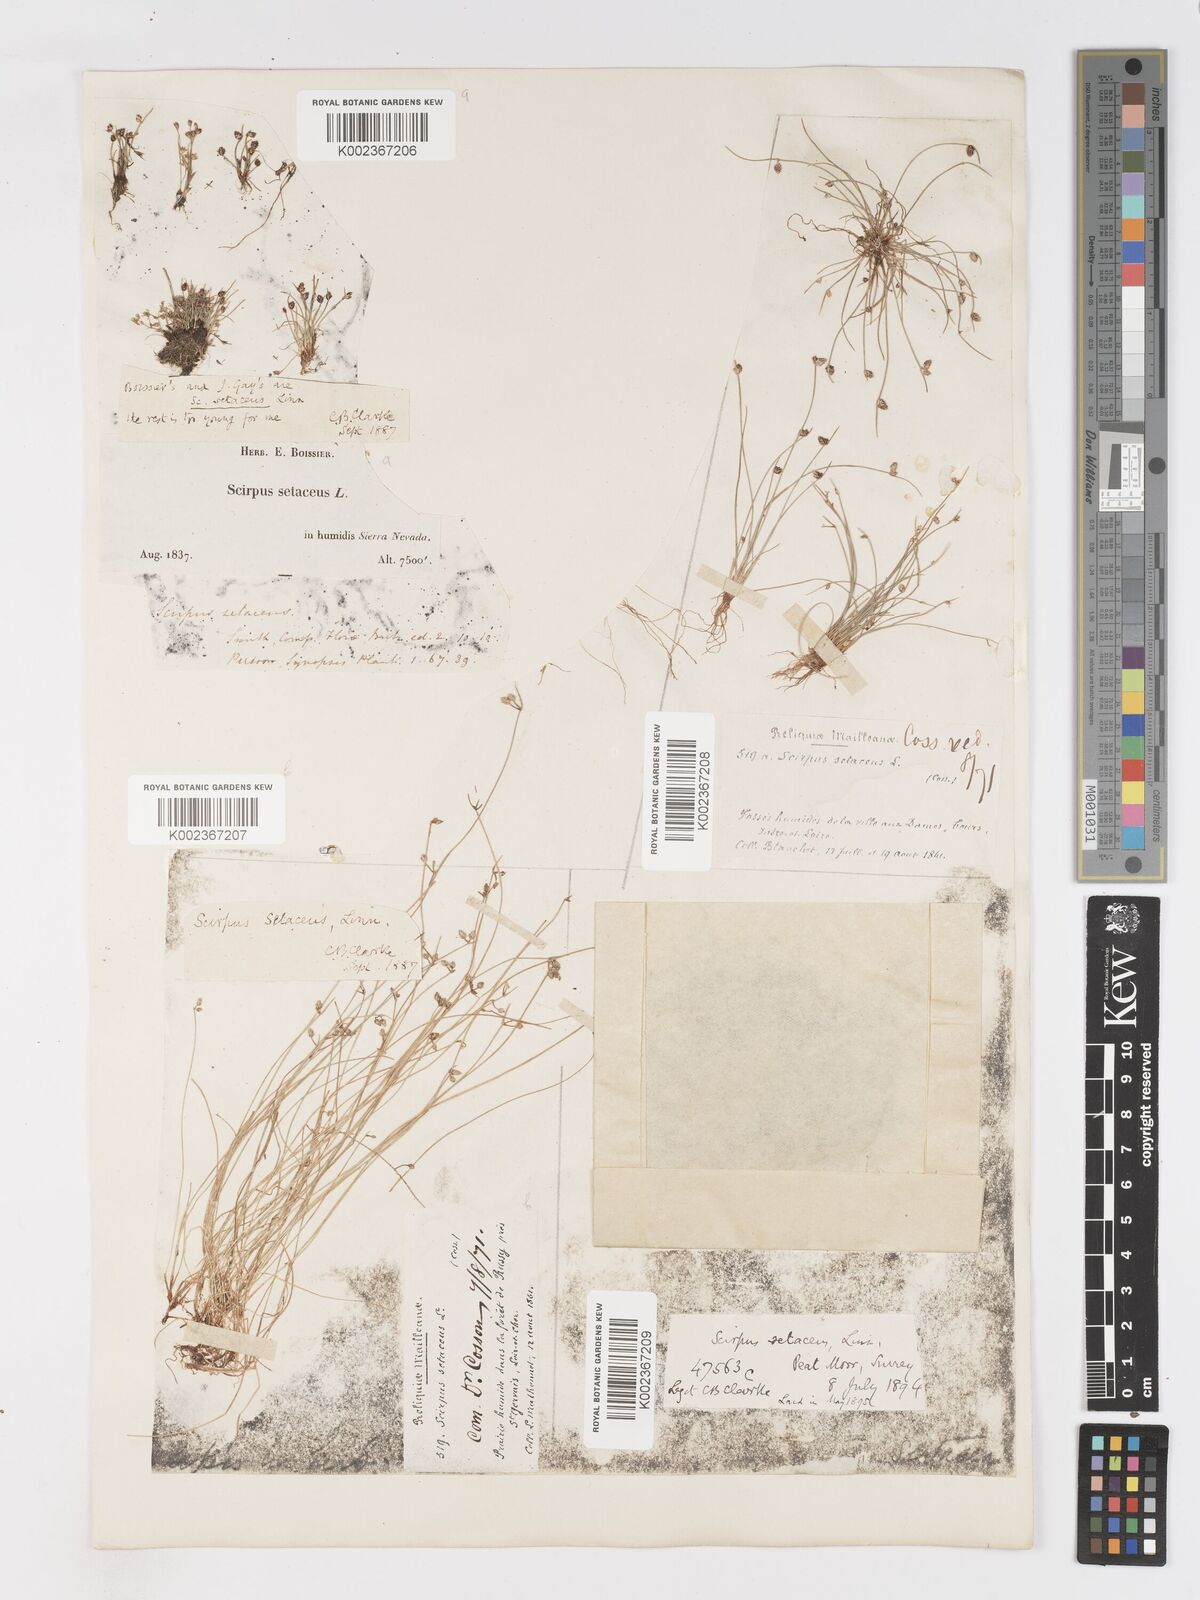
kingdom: Plantae
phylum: Tracheophyta
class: Liliopsida
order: Poales
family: Cyperaceae
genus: Isolepis
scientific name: Isolepis setacea
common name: Bristle club-rush
